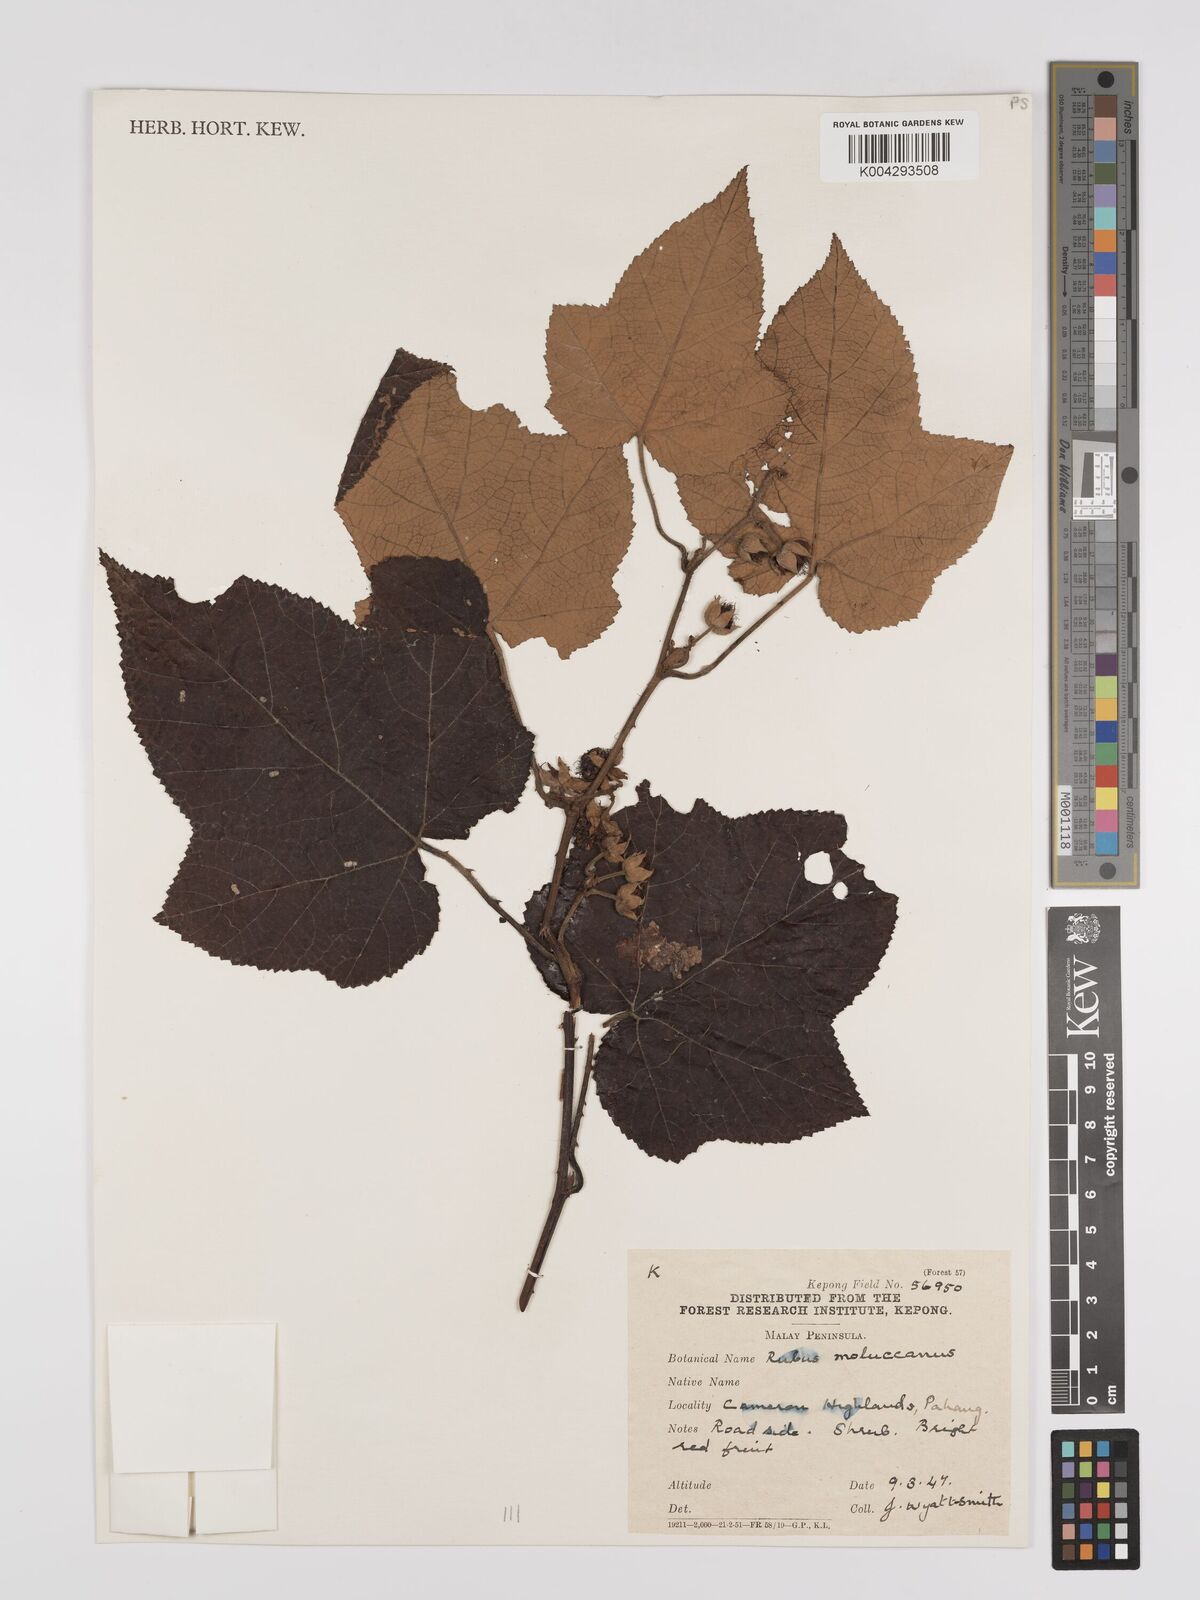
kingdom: Plantae
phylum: Tracheophyta
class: Magnoliopsida
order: Rosales
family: Rosaceae
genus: Rubus
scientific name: Rubus moluccanus
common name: Wild raspberry
